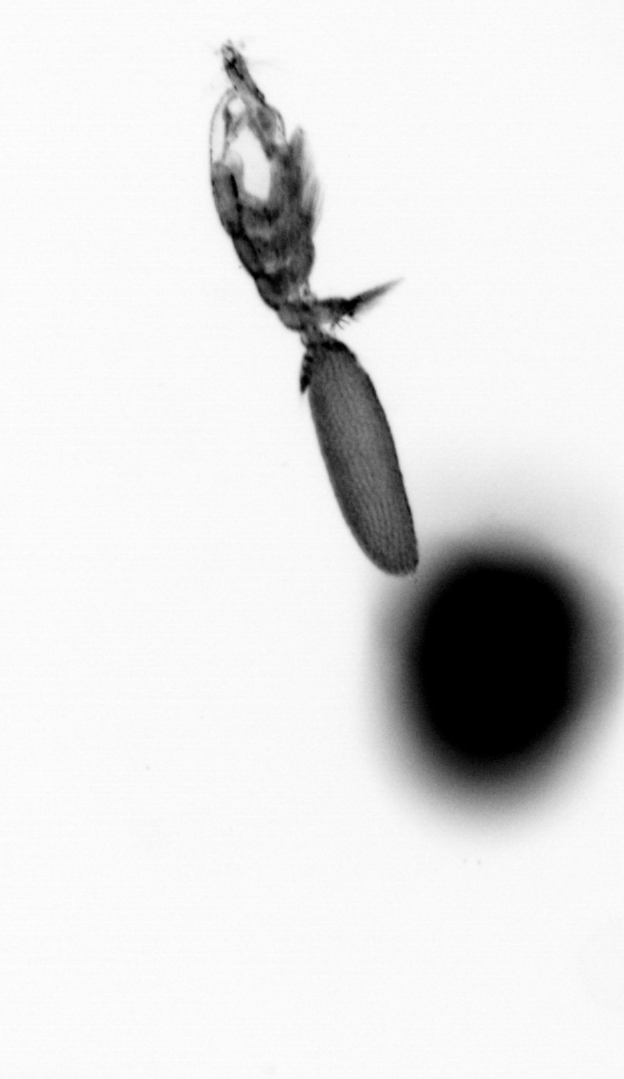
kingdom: Animalia
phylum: Arthropoda
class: Copepoda
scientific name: Copepoda
